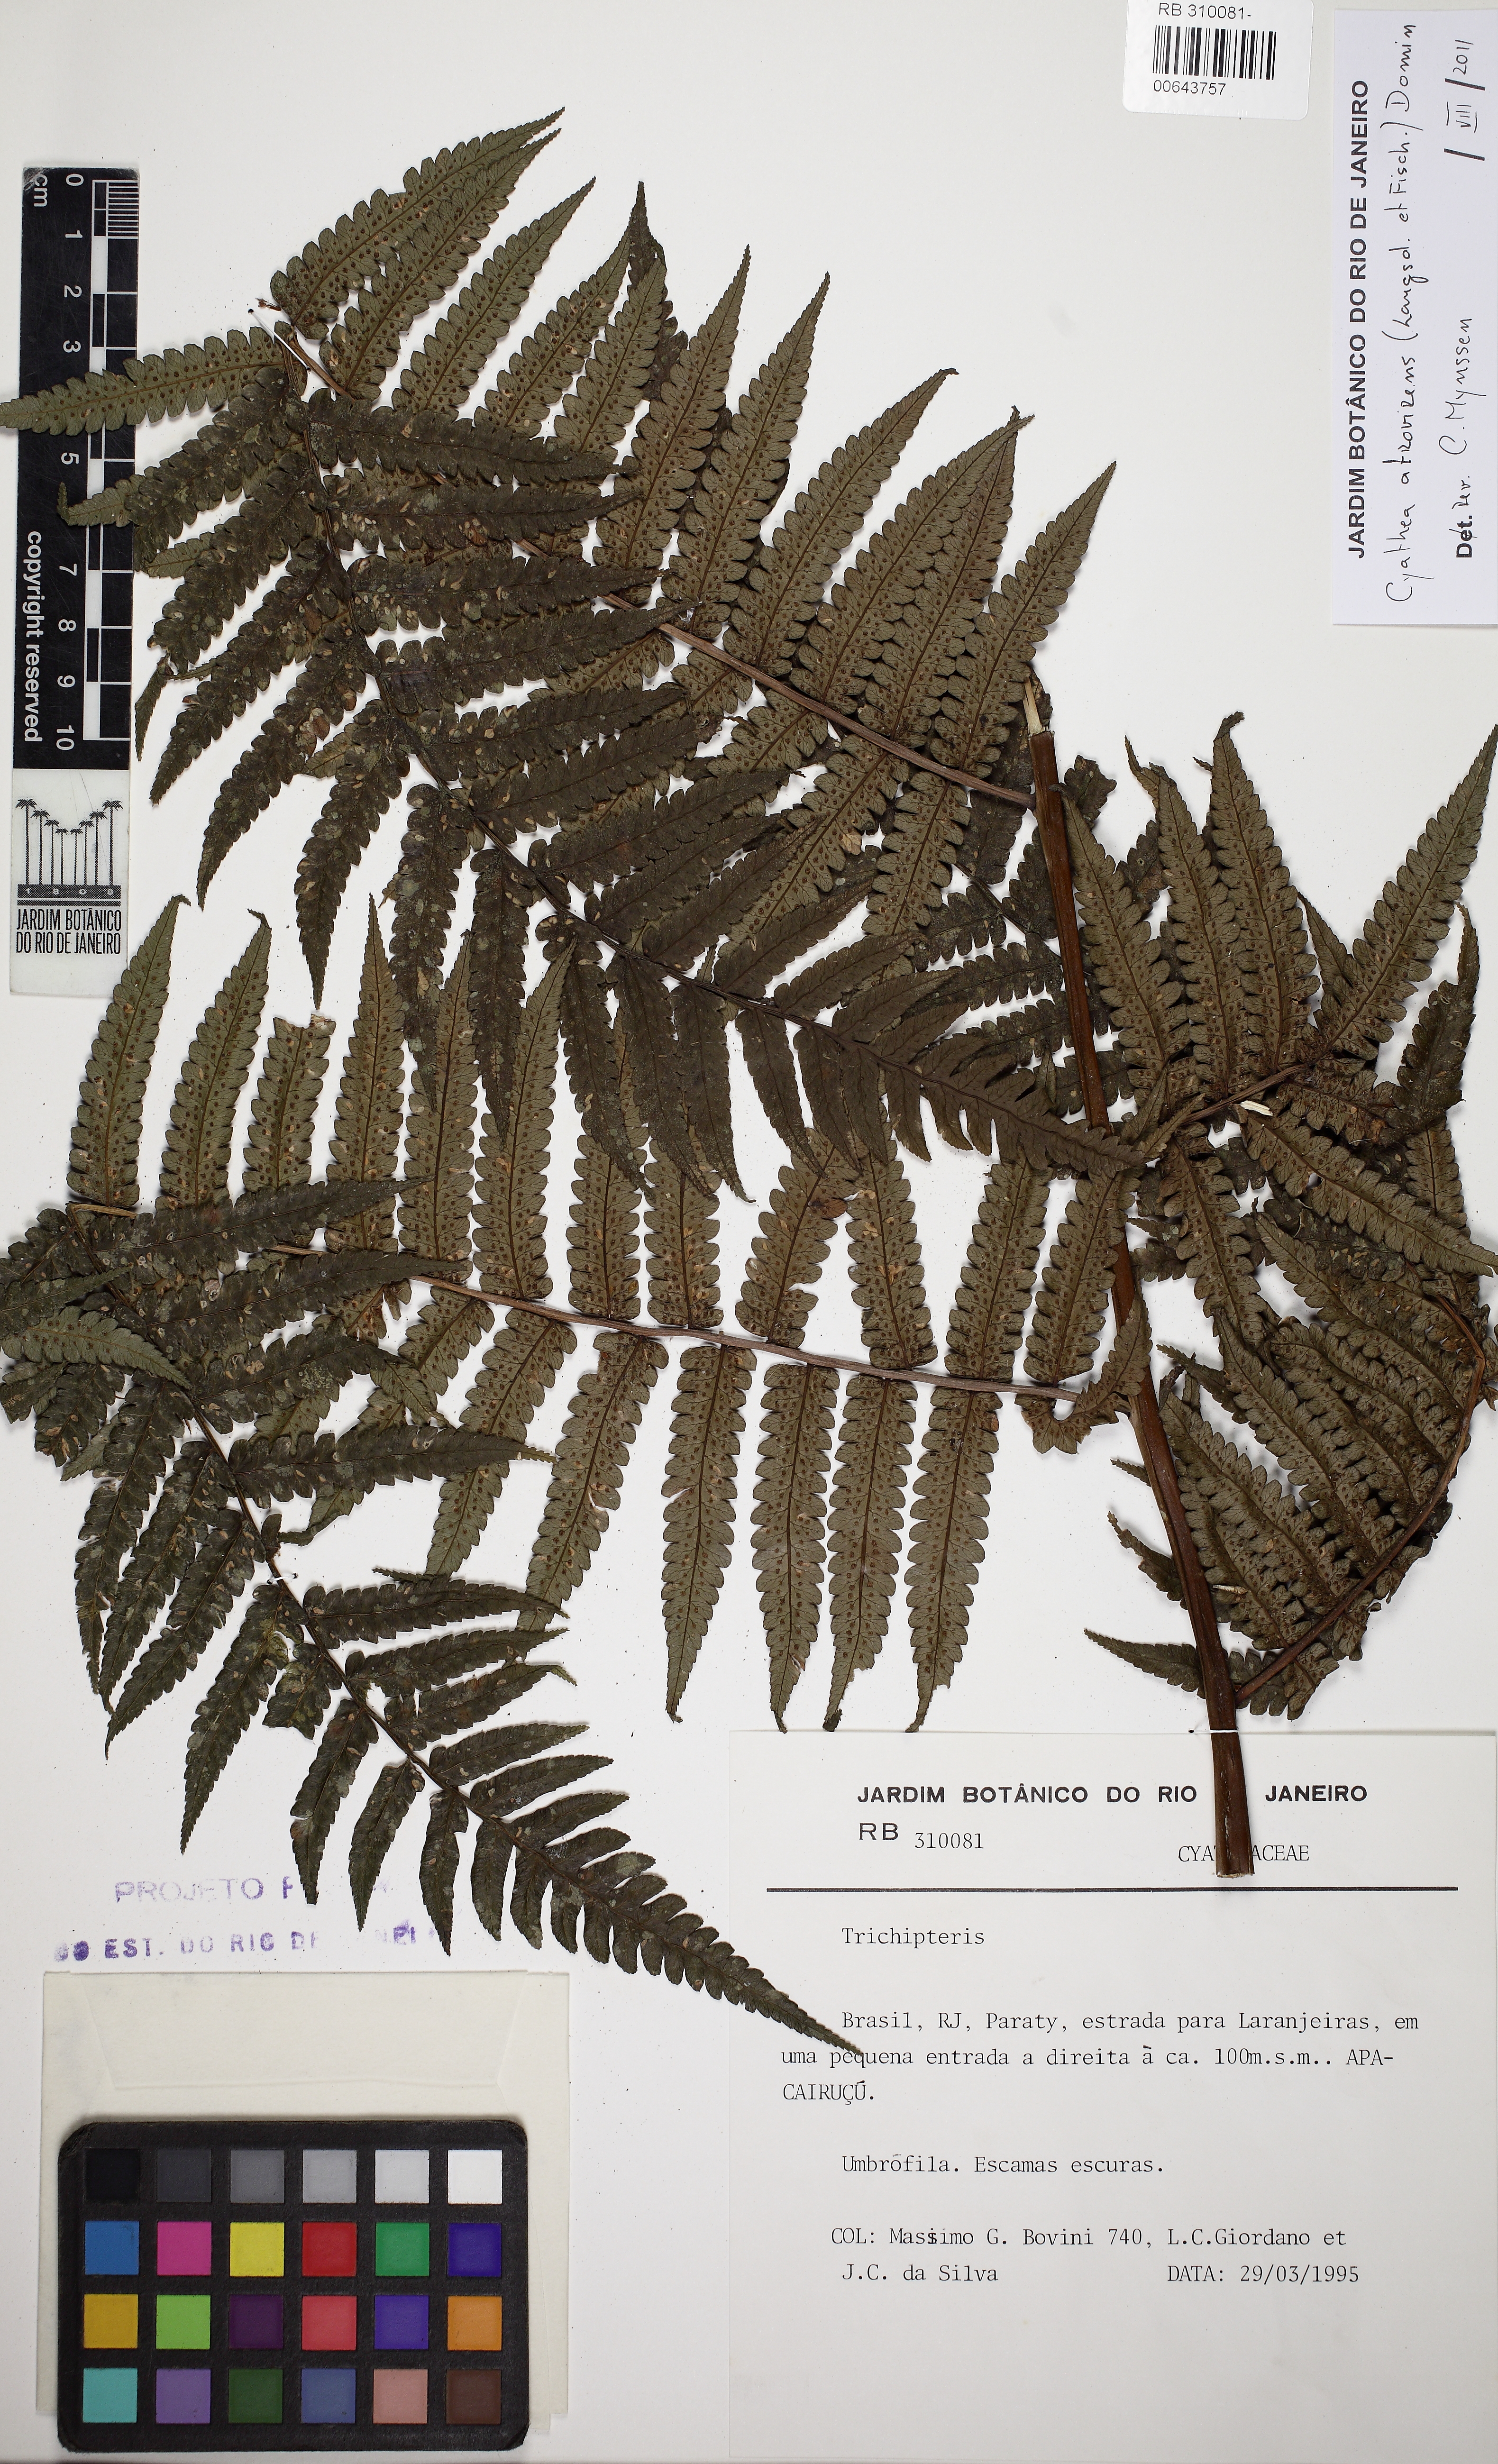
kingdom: Plantae
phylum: Tracheophyta
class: Polypodiopsida
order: Cyatheales
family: Cyatheaceae
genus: Cyathea
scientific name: Cyathea atrovirens
